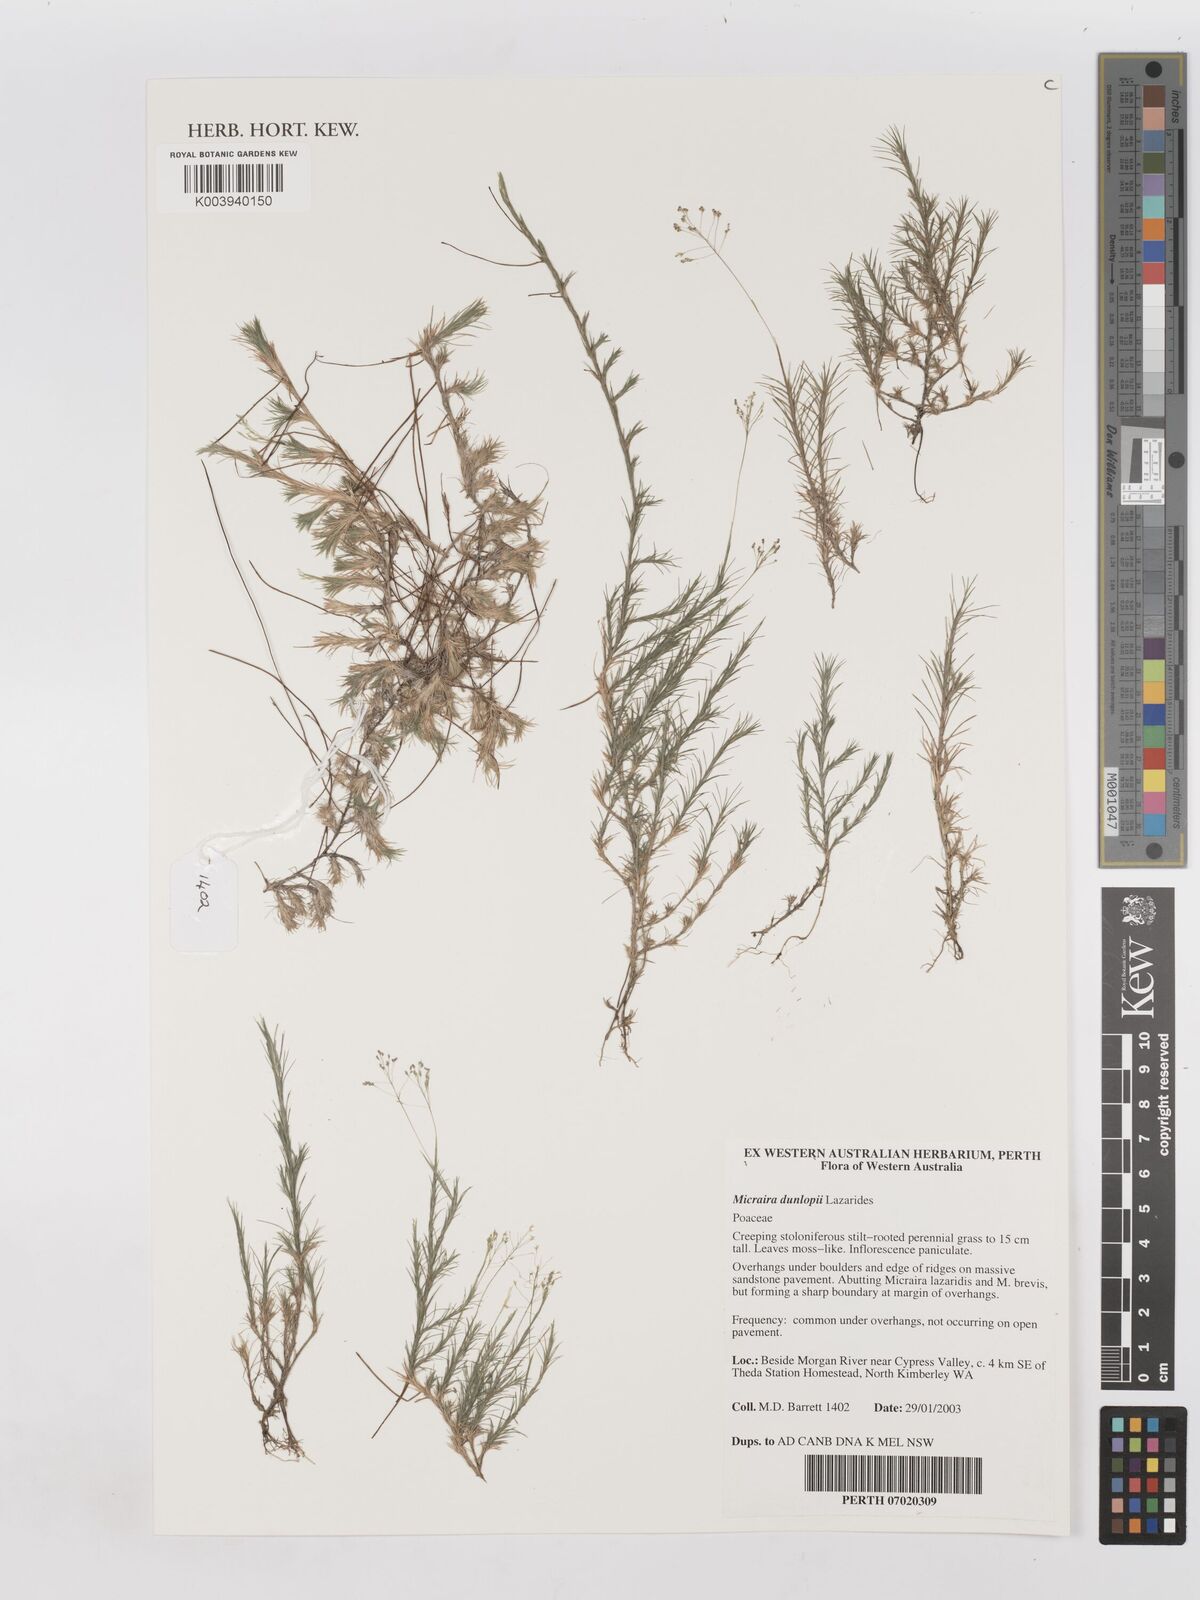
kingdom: Plantae
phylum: Tracheophyta
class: Liliopsida
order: Poales
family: Poaceae
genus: Micraira
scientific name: Micraira dunlopii
